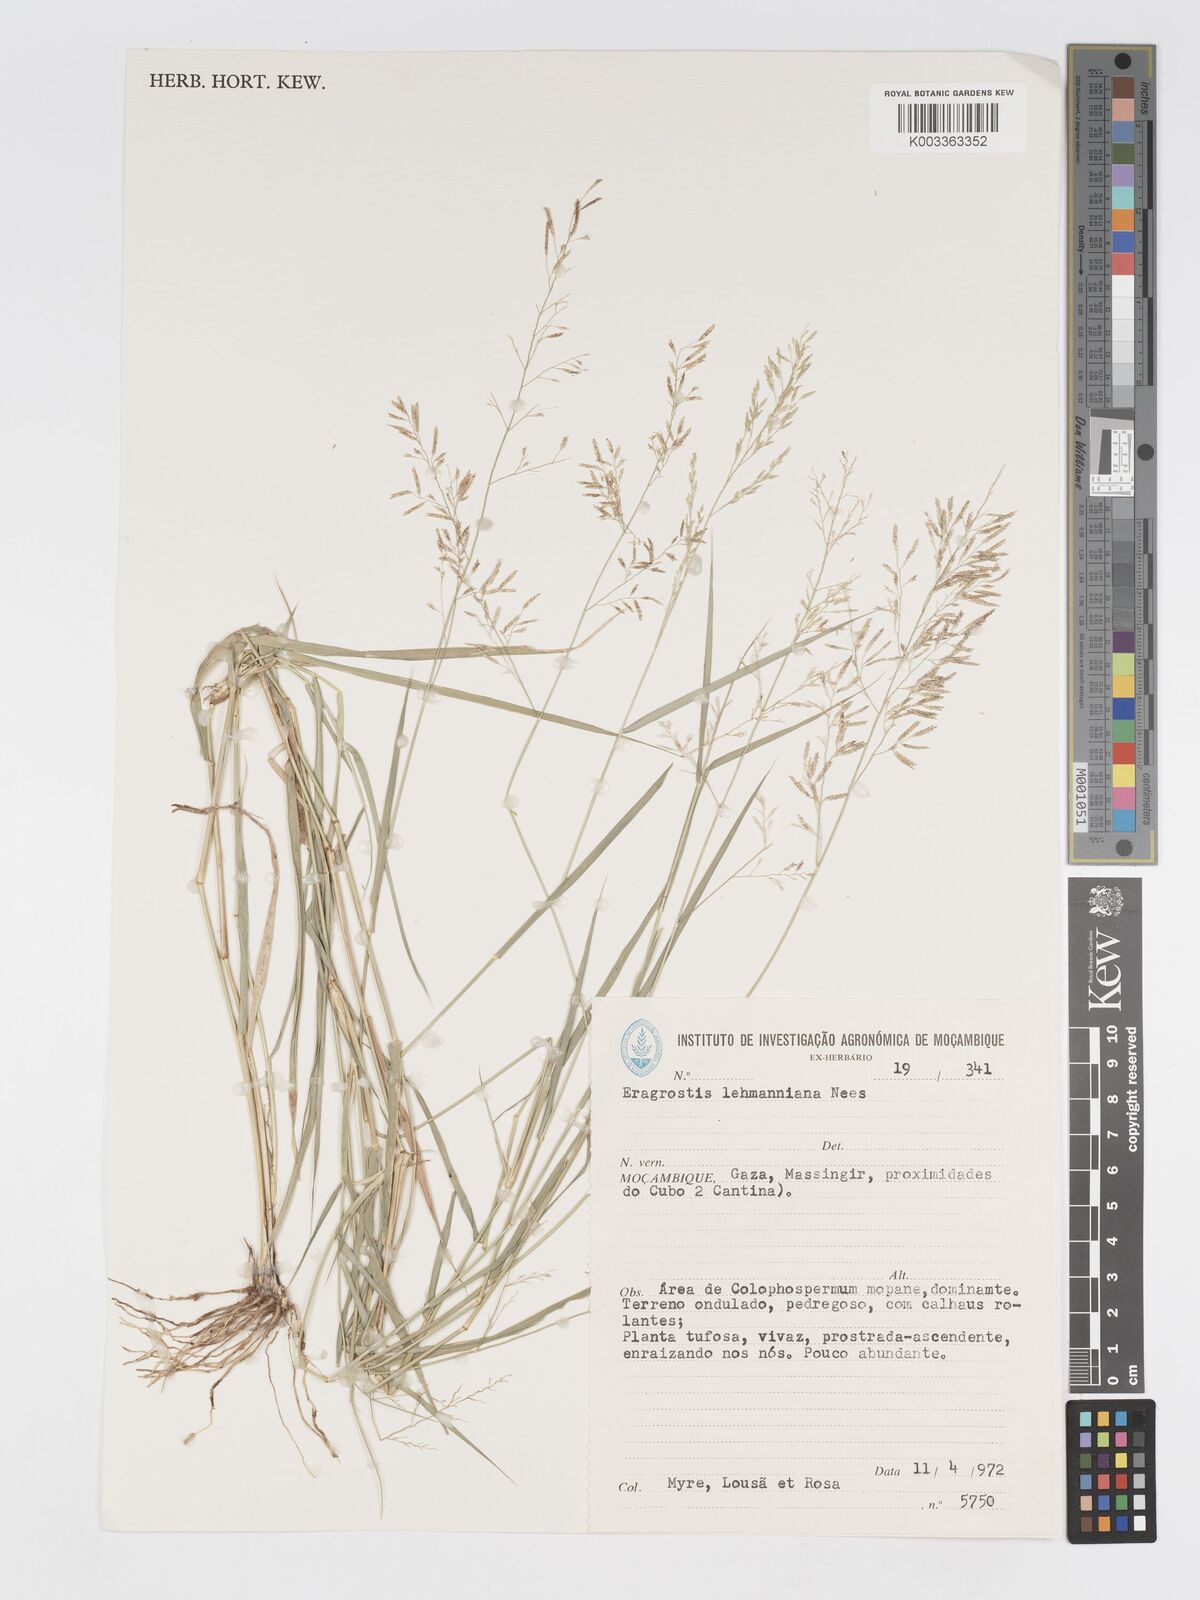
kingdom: Plantae
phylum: Tracheophyta
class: Liliopsida
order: Poales
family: Poaceae
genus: Eragrostis
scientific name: Eragrostis lehmanniana
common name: Lehmann lovegrass
